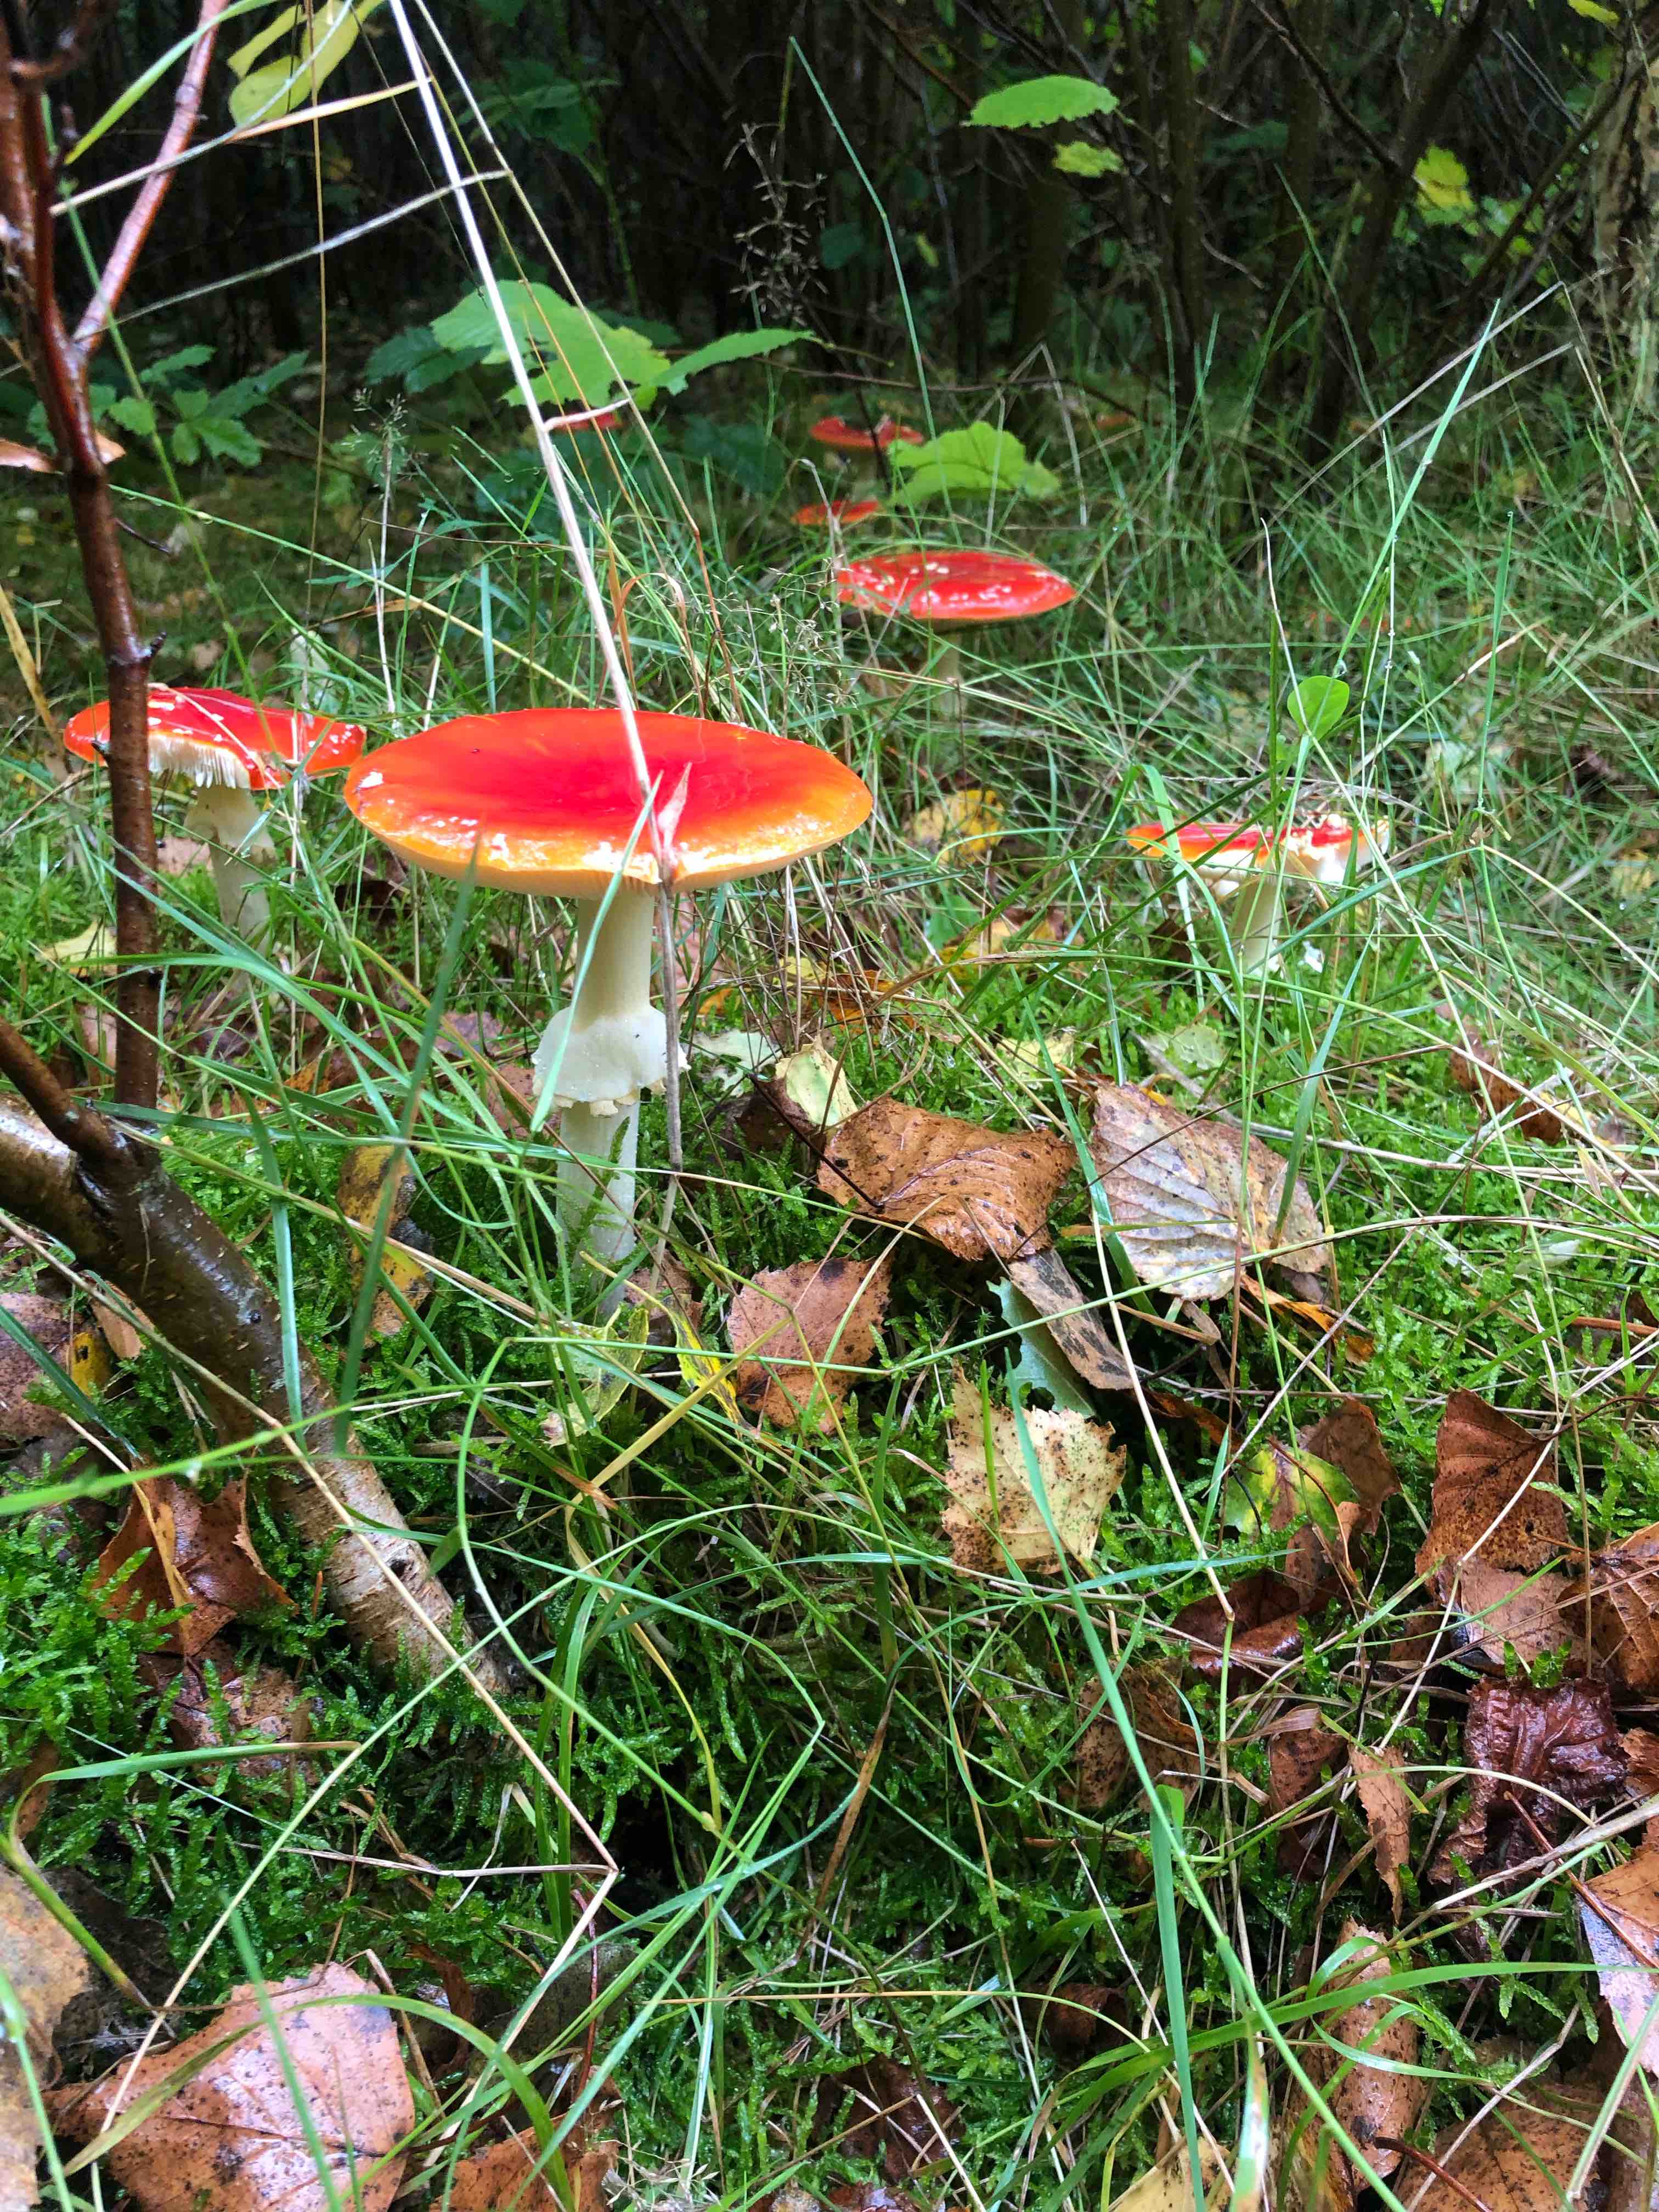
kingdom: Fungi
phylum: Basidiomycota
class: Agaricomycetes
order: Agaricales
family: Amanitaceae
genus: Amanita
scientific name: Amanita muscaria
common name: rød fluesvamp
